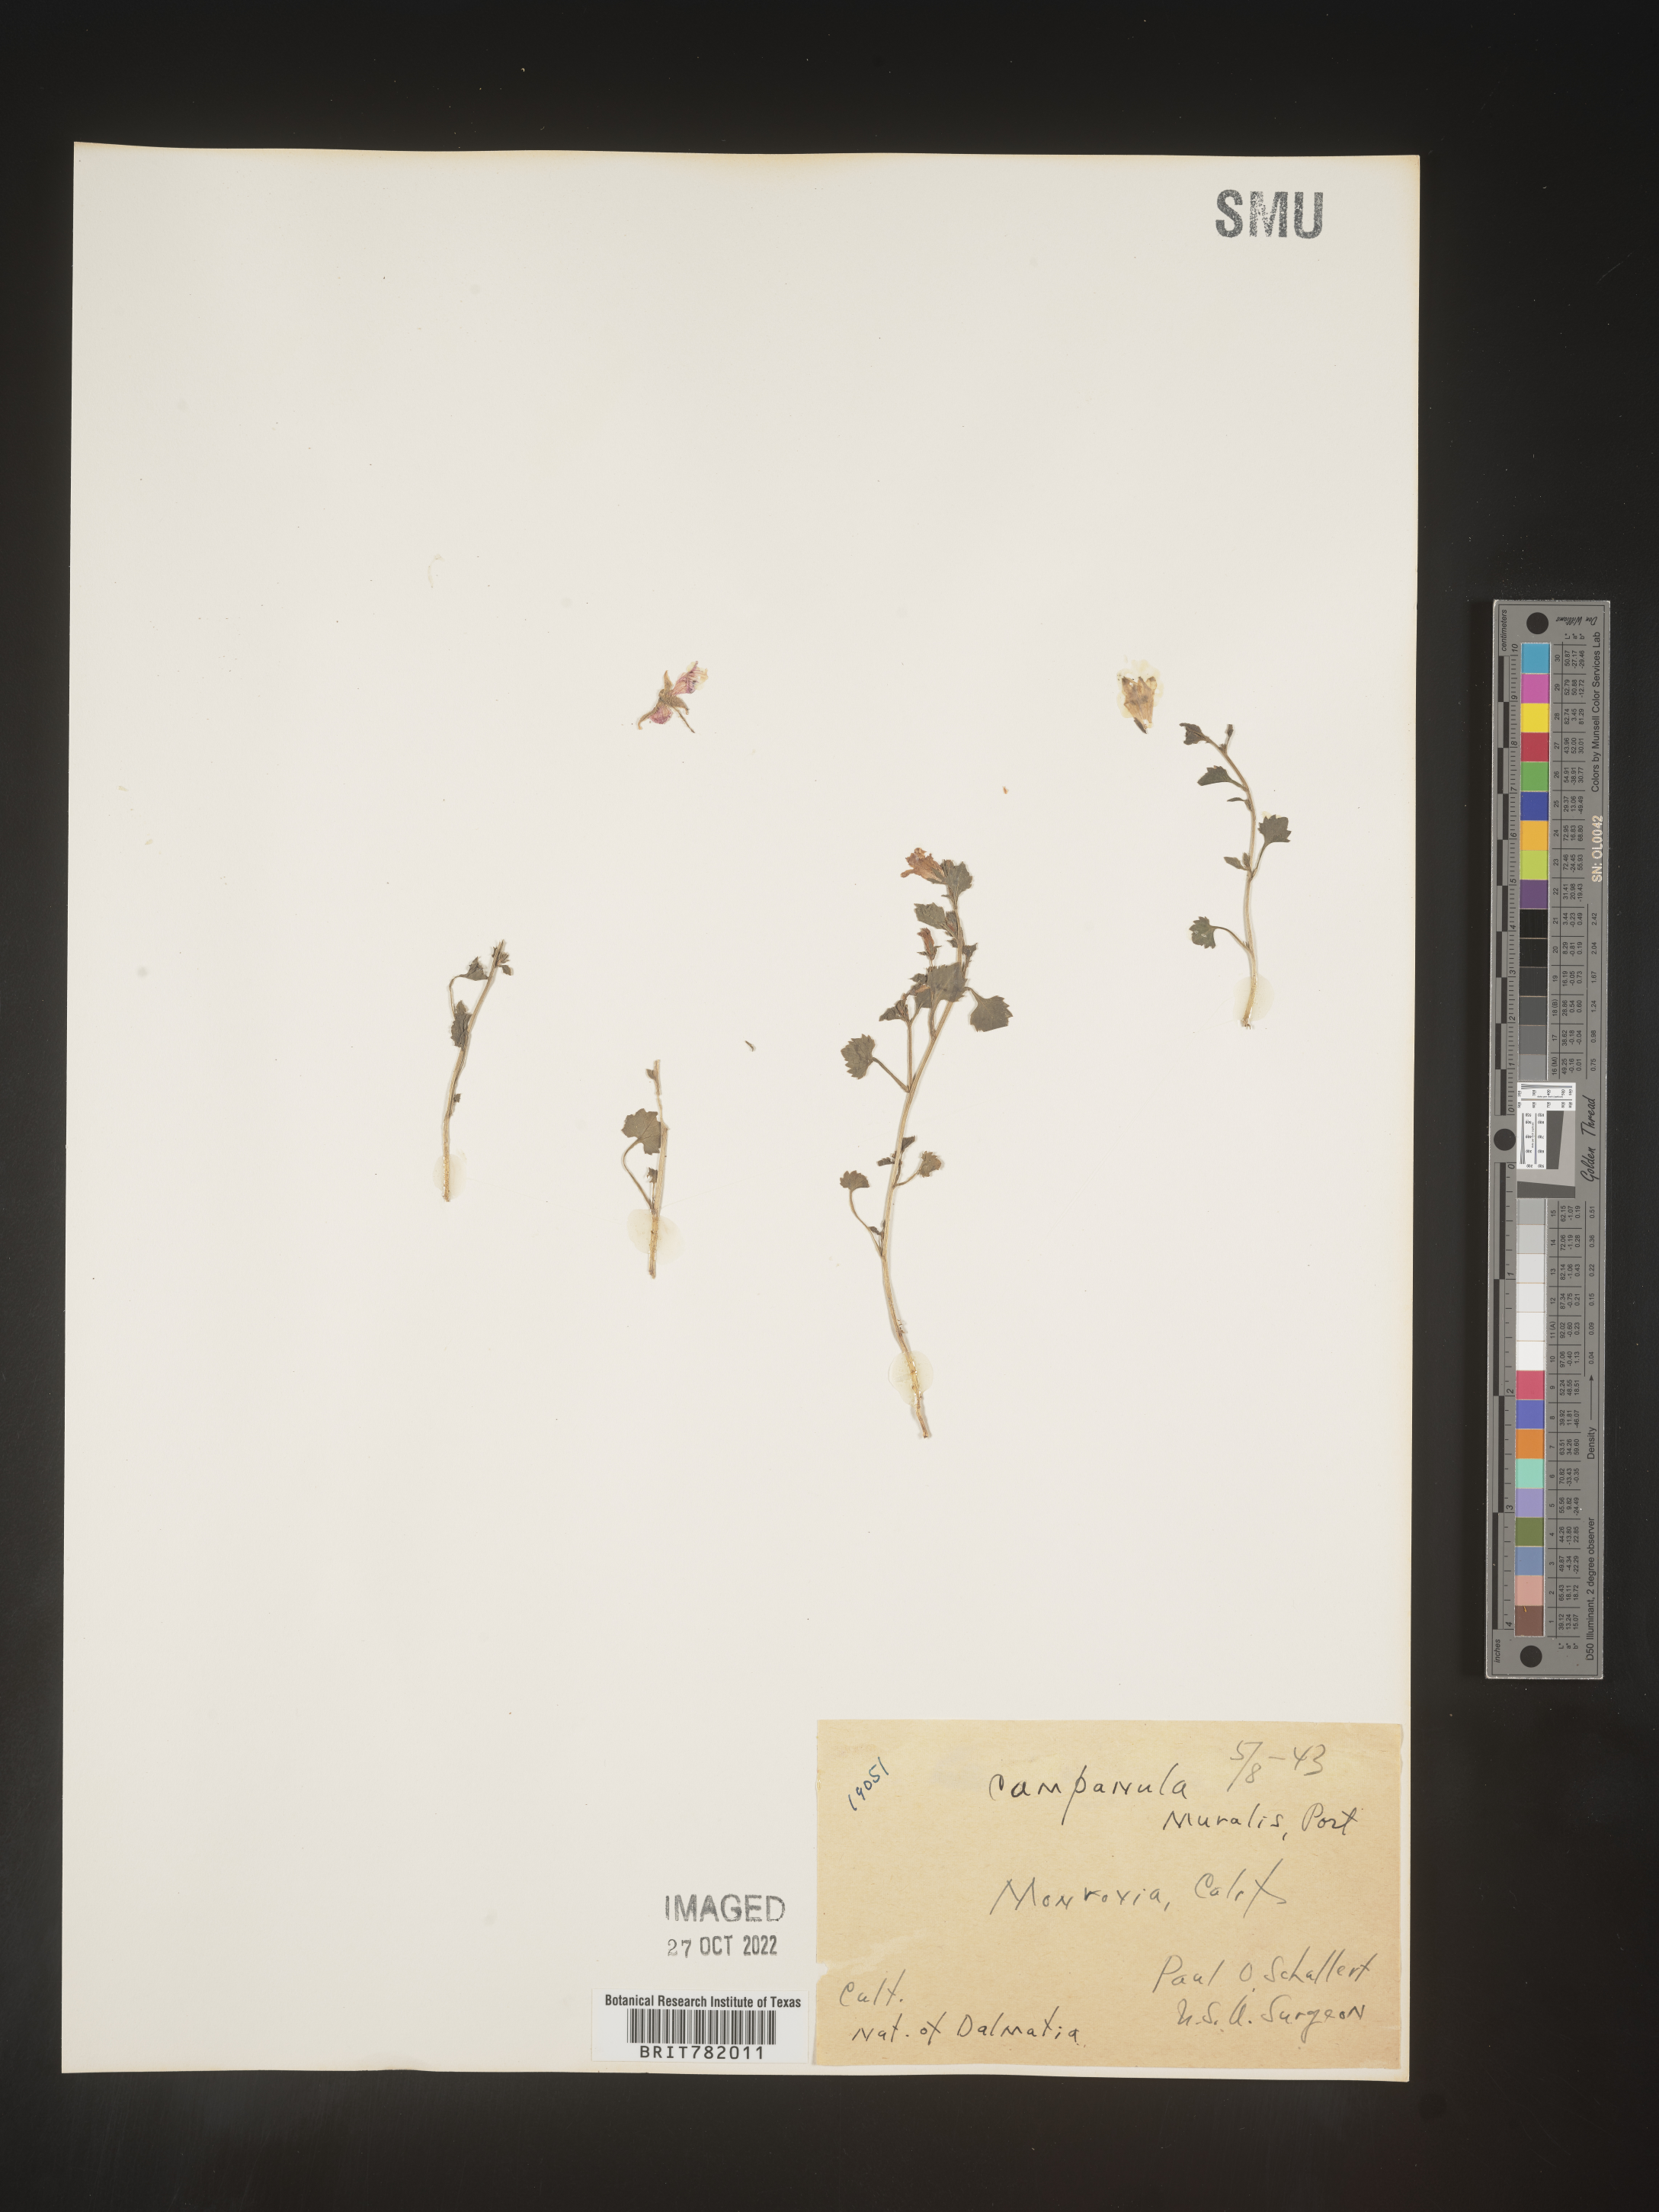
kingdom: Plantae
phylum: Tracheophyta
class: Magnoliopsida
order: Asterales
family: Campanulaceae
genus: Campanula
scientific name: Campanula
